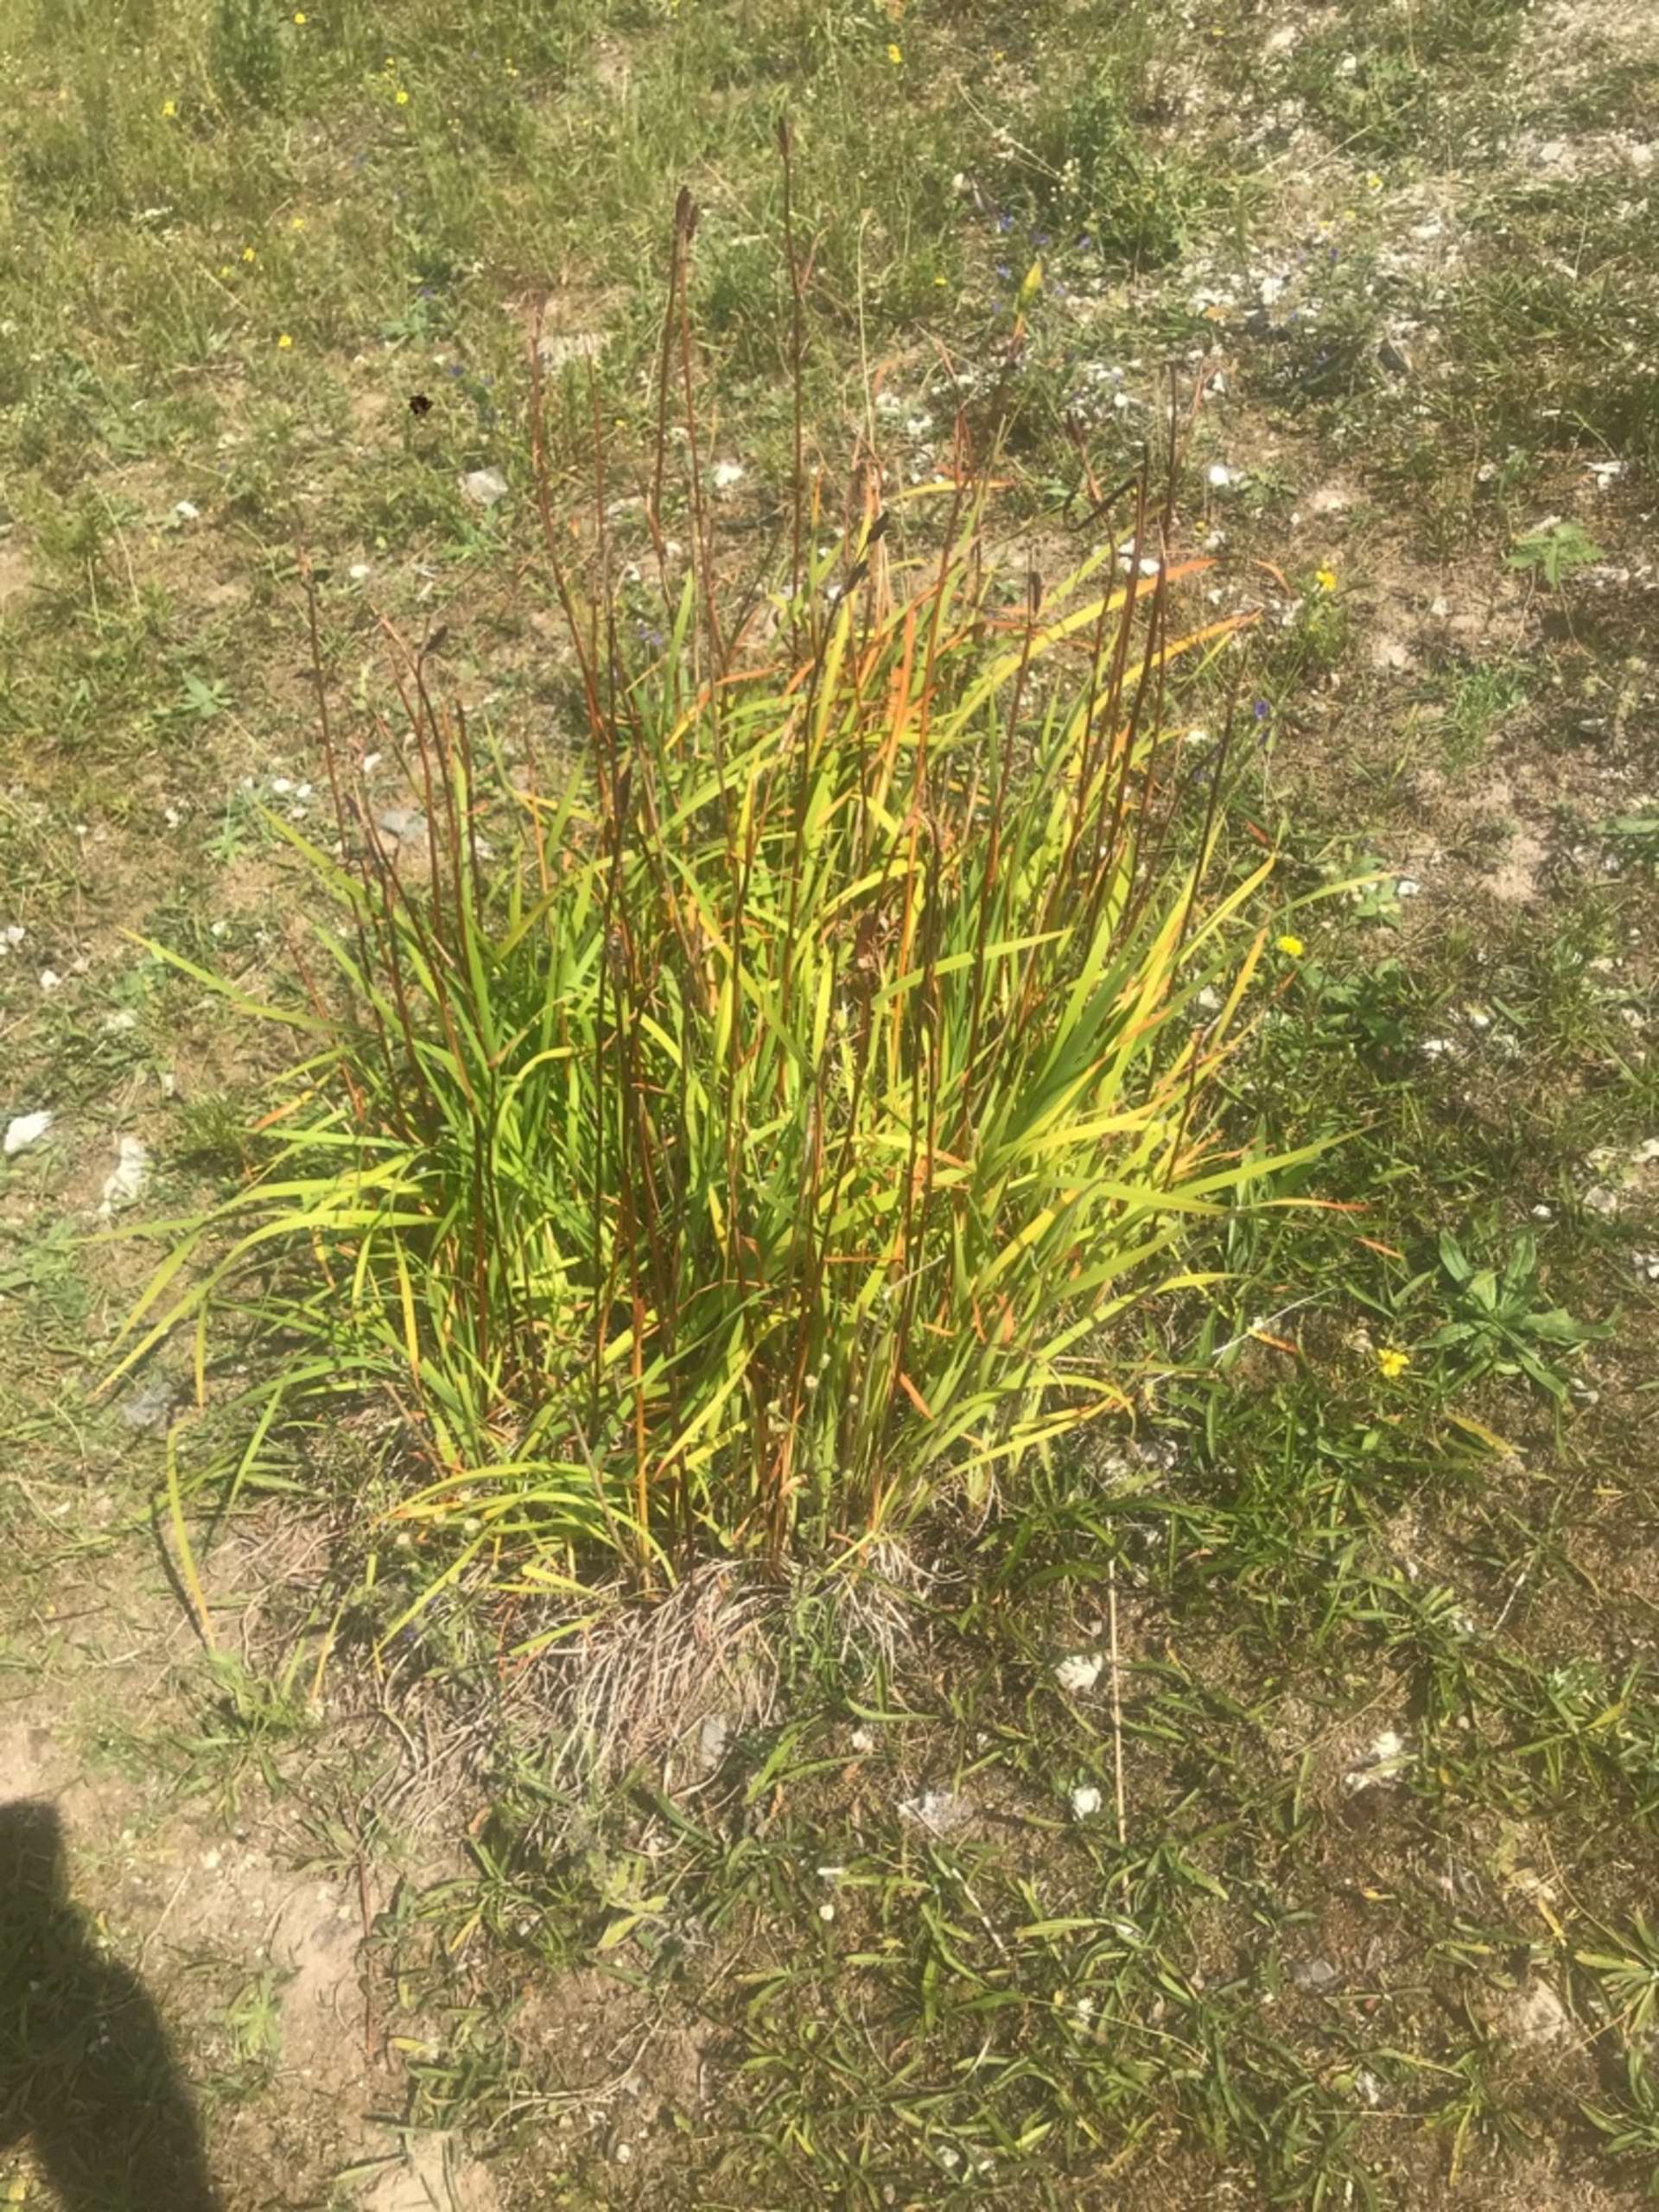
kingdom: Plantae
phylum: Tracheophyta
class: Liliopsida
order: Asparagales
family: Iridaceae
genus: Iris
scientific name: Iris sibirica
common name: Sibirisk iris
